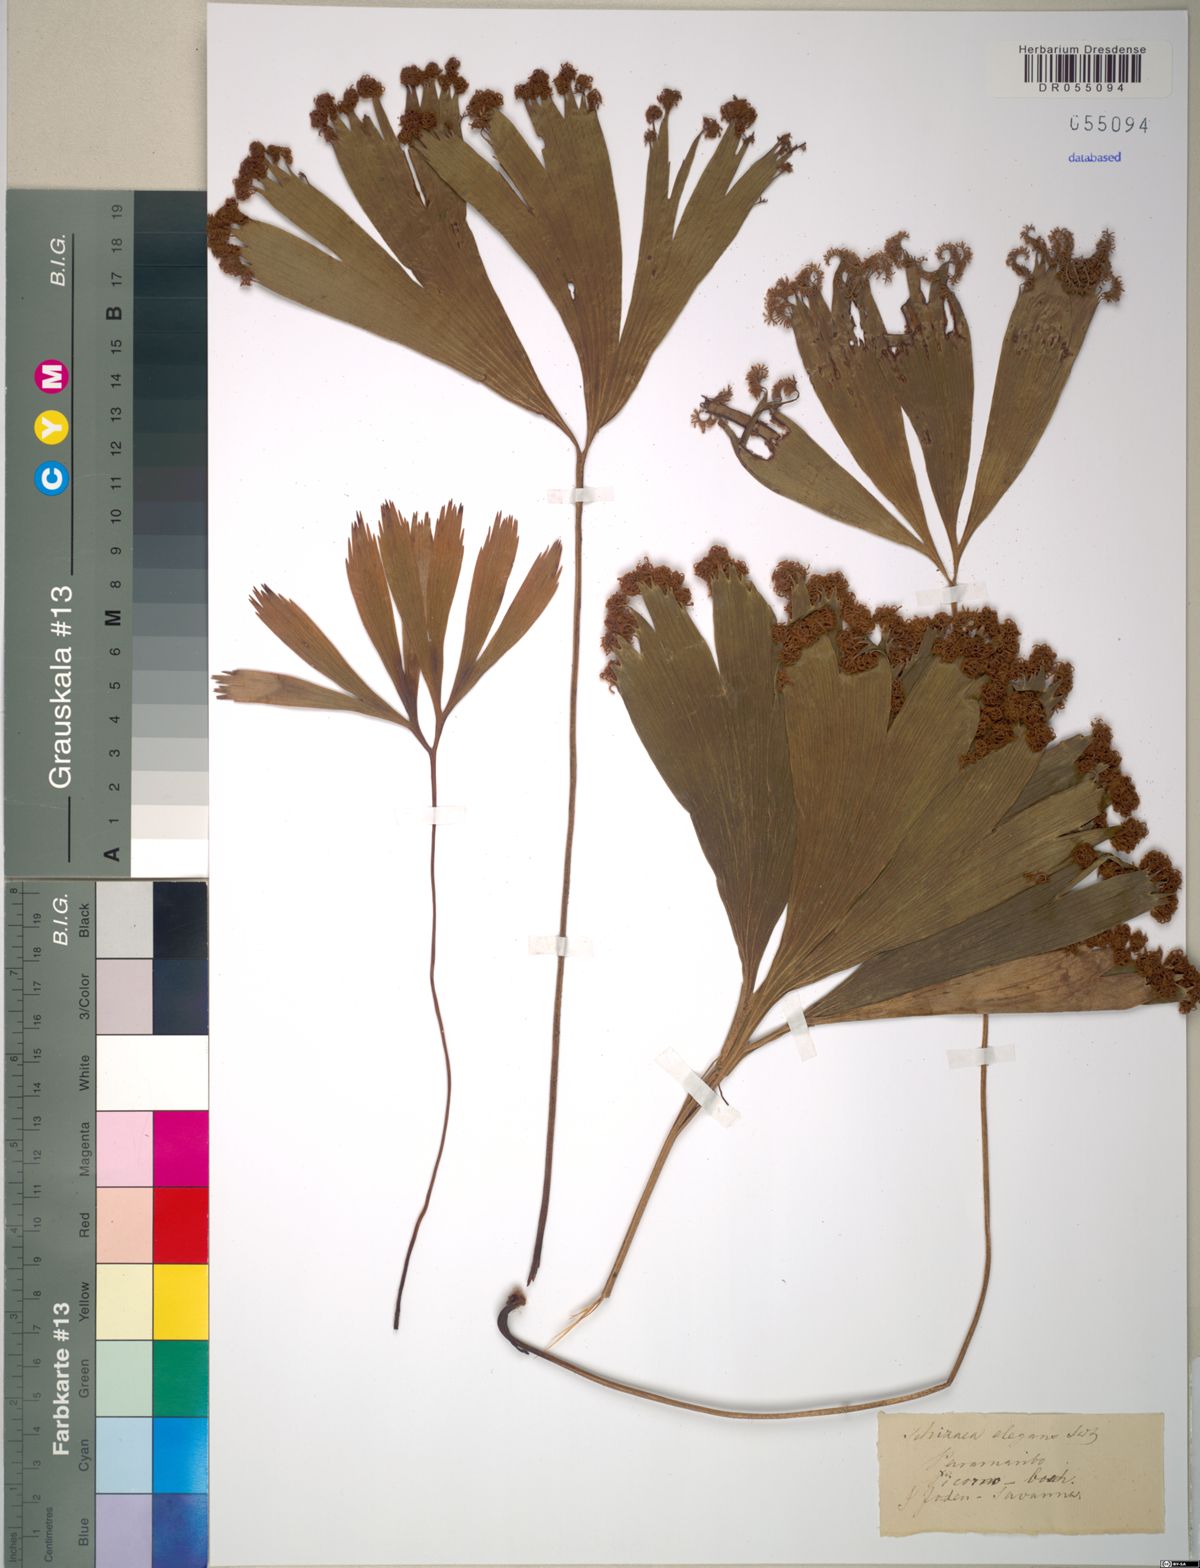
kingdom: Plantae
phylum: Tracheophyta
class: Polypodiopsida
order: Schizaeales
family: Schizaeaceae
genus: Schizaea
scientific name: Schizaea elegans
